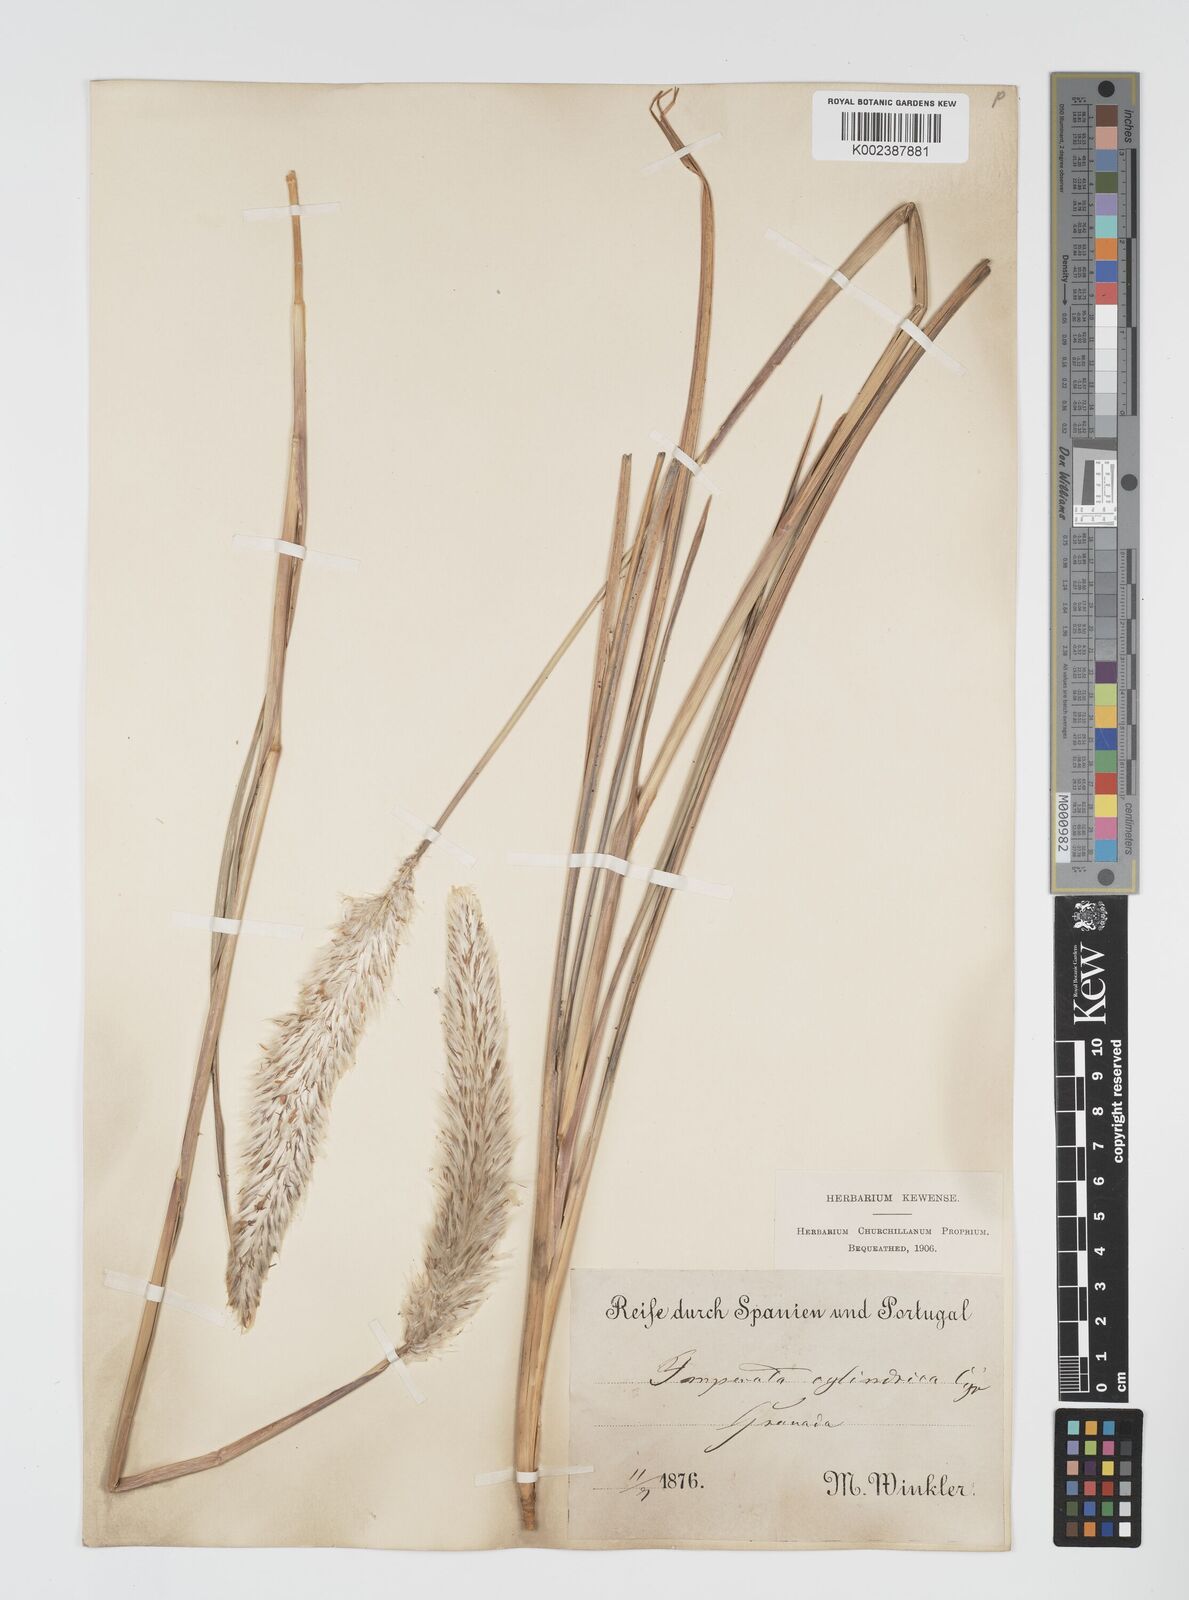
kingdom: Plantae
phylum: Tracheophyta
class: Liliopsida
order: Poales
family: Poaceae
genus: Imperata
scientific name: Imperata cylindrica
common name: Cogongrass
